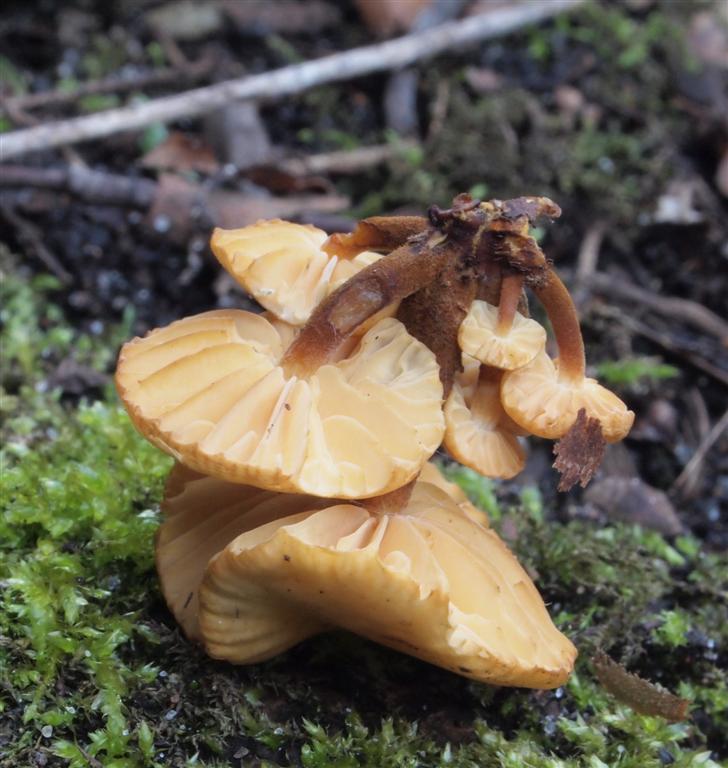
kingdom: Fungi
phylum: Basidiomycota
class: Agaricomycetes
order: Agaricales
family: Physalacriaceae
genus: Flammulina
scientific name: Flammulina velutipes
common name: gul fløjlsfod
